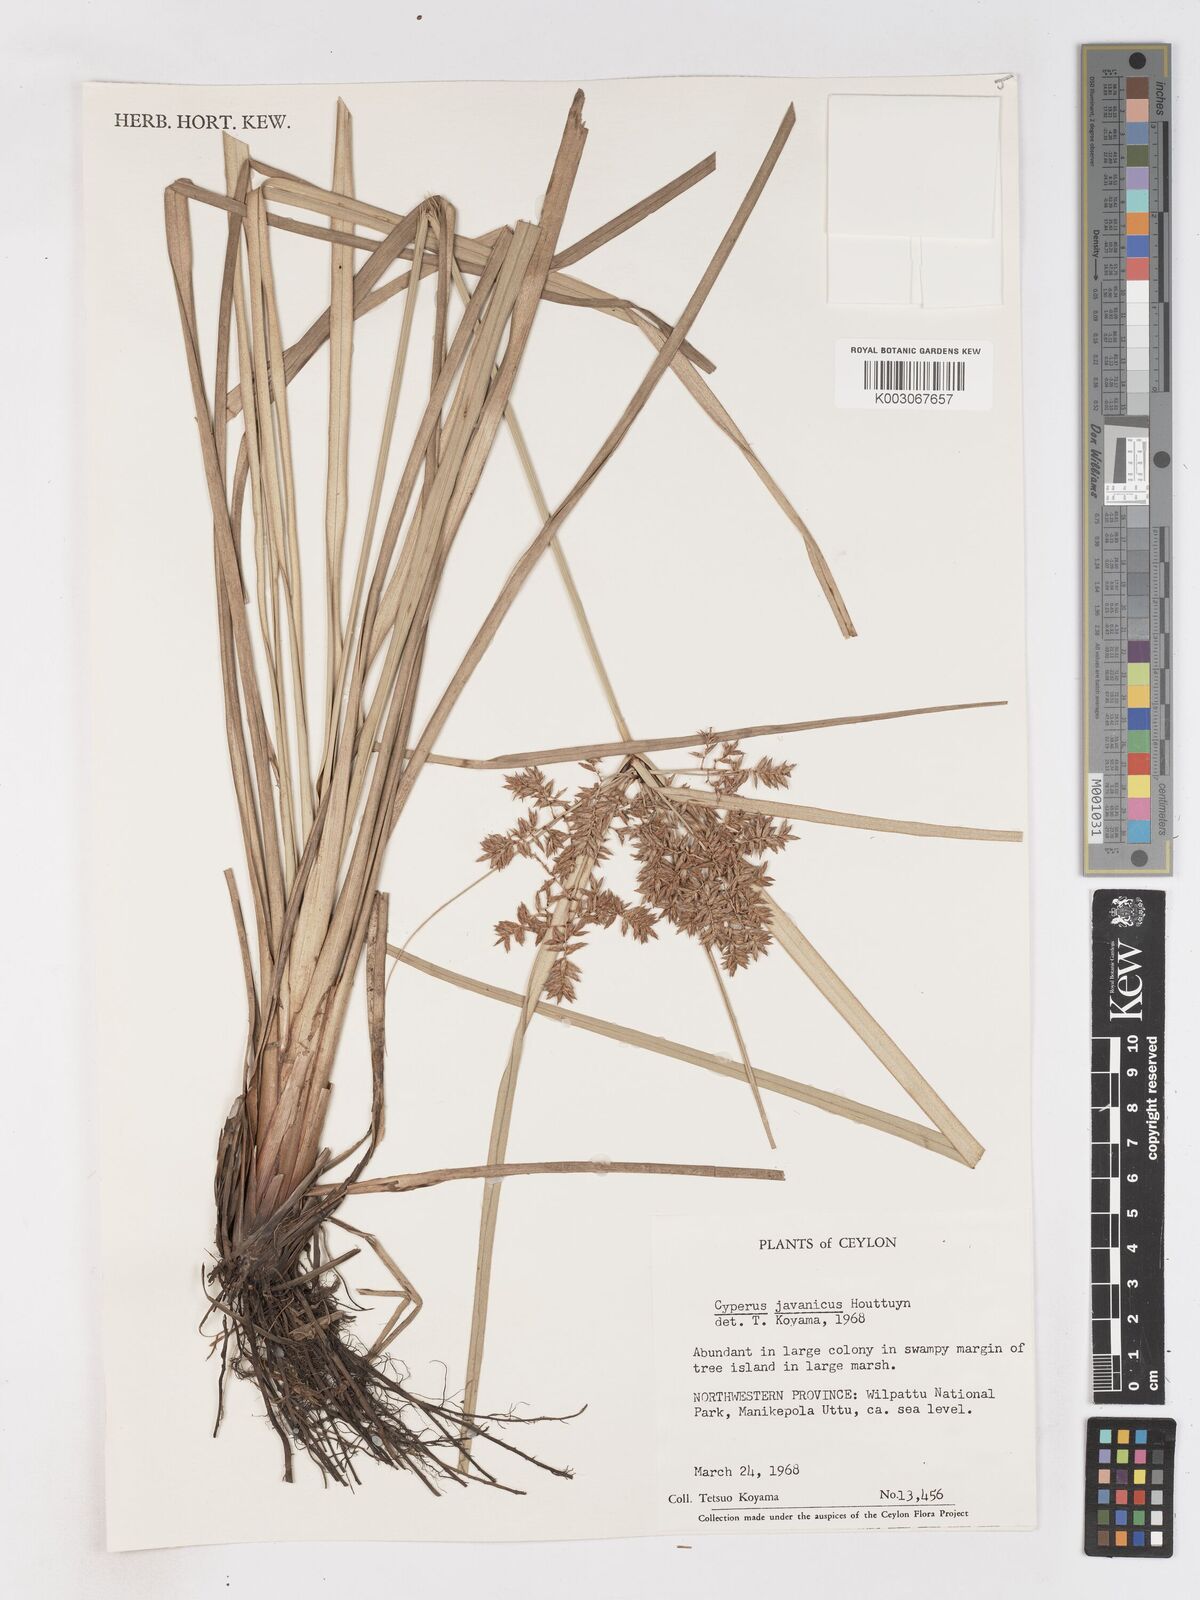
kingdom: Plantae
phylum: Tracheophyta
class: Liliopsida
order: Poales
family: Cyperaceae
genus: Cyperus
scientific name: Cyperus javanicus
